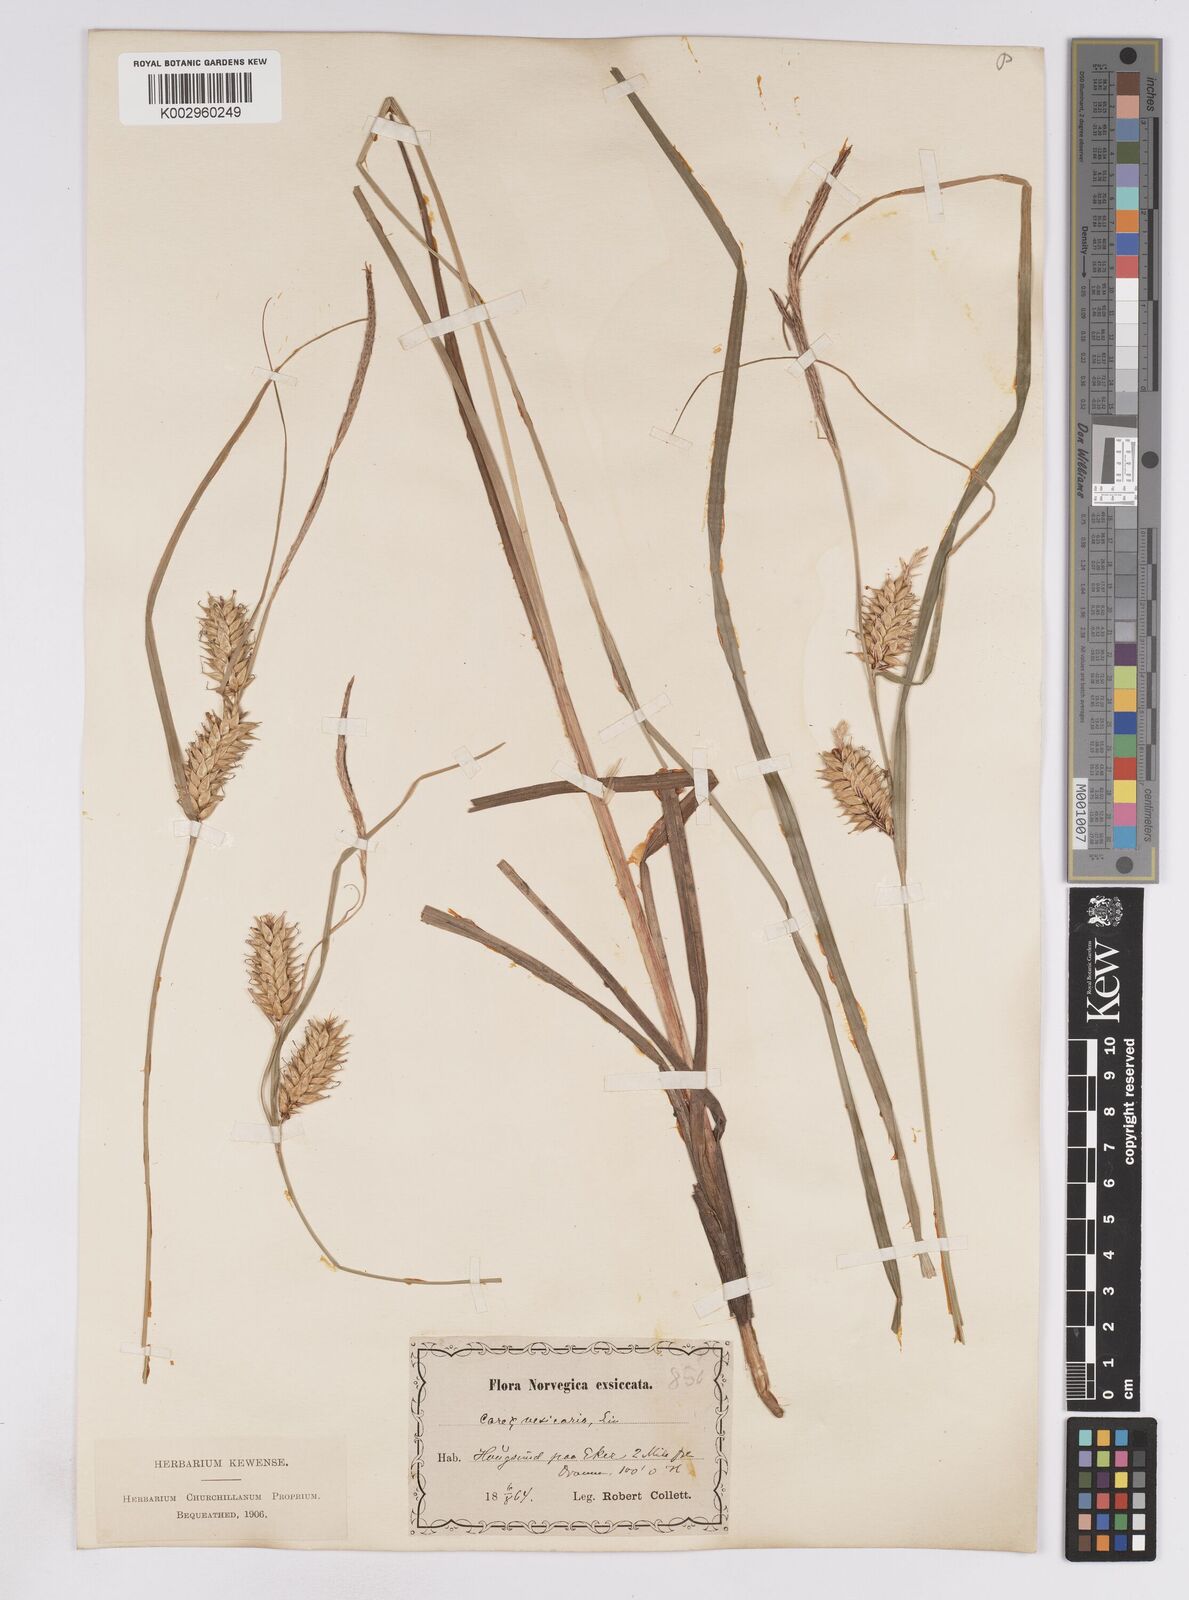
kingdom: Plantae
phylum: Tracheophyta
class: Liliopsida
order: Poales
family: Cyperaceae
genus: Carex
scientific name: Carex vesicaria
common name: Bladder-sedge
